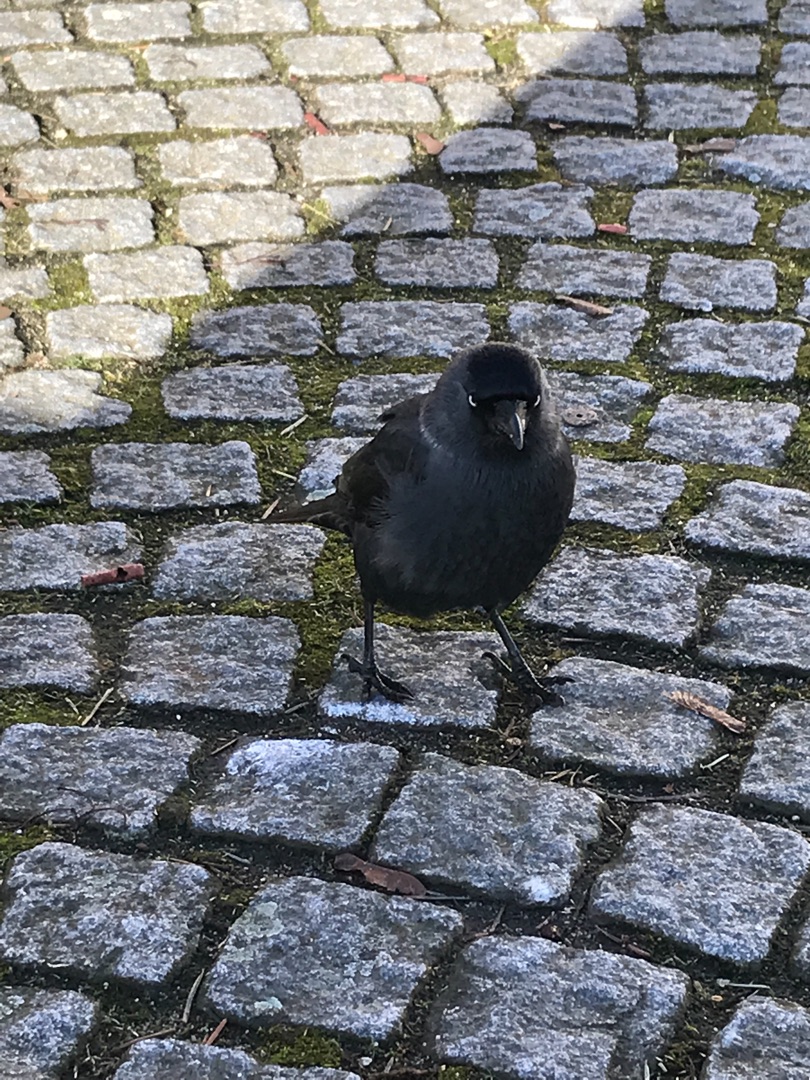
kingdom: Animalia
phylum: Chordata
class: Aves
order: Passeriformes
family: Corvidae
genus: Coloeus
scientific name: Coloeus monedula
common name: Allike
